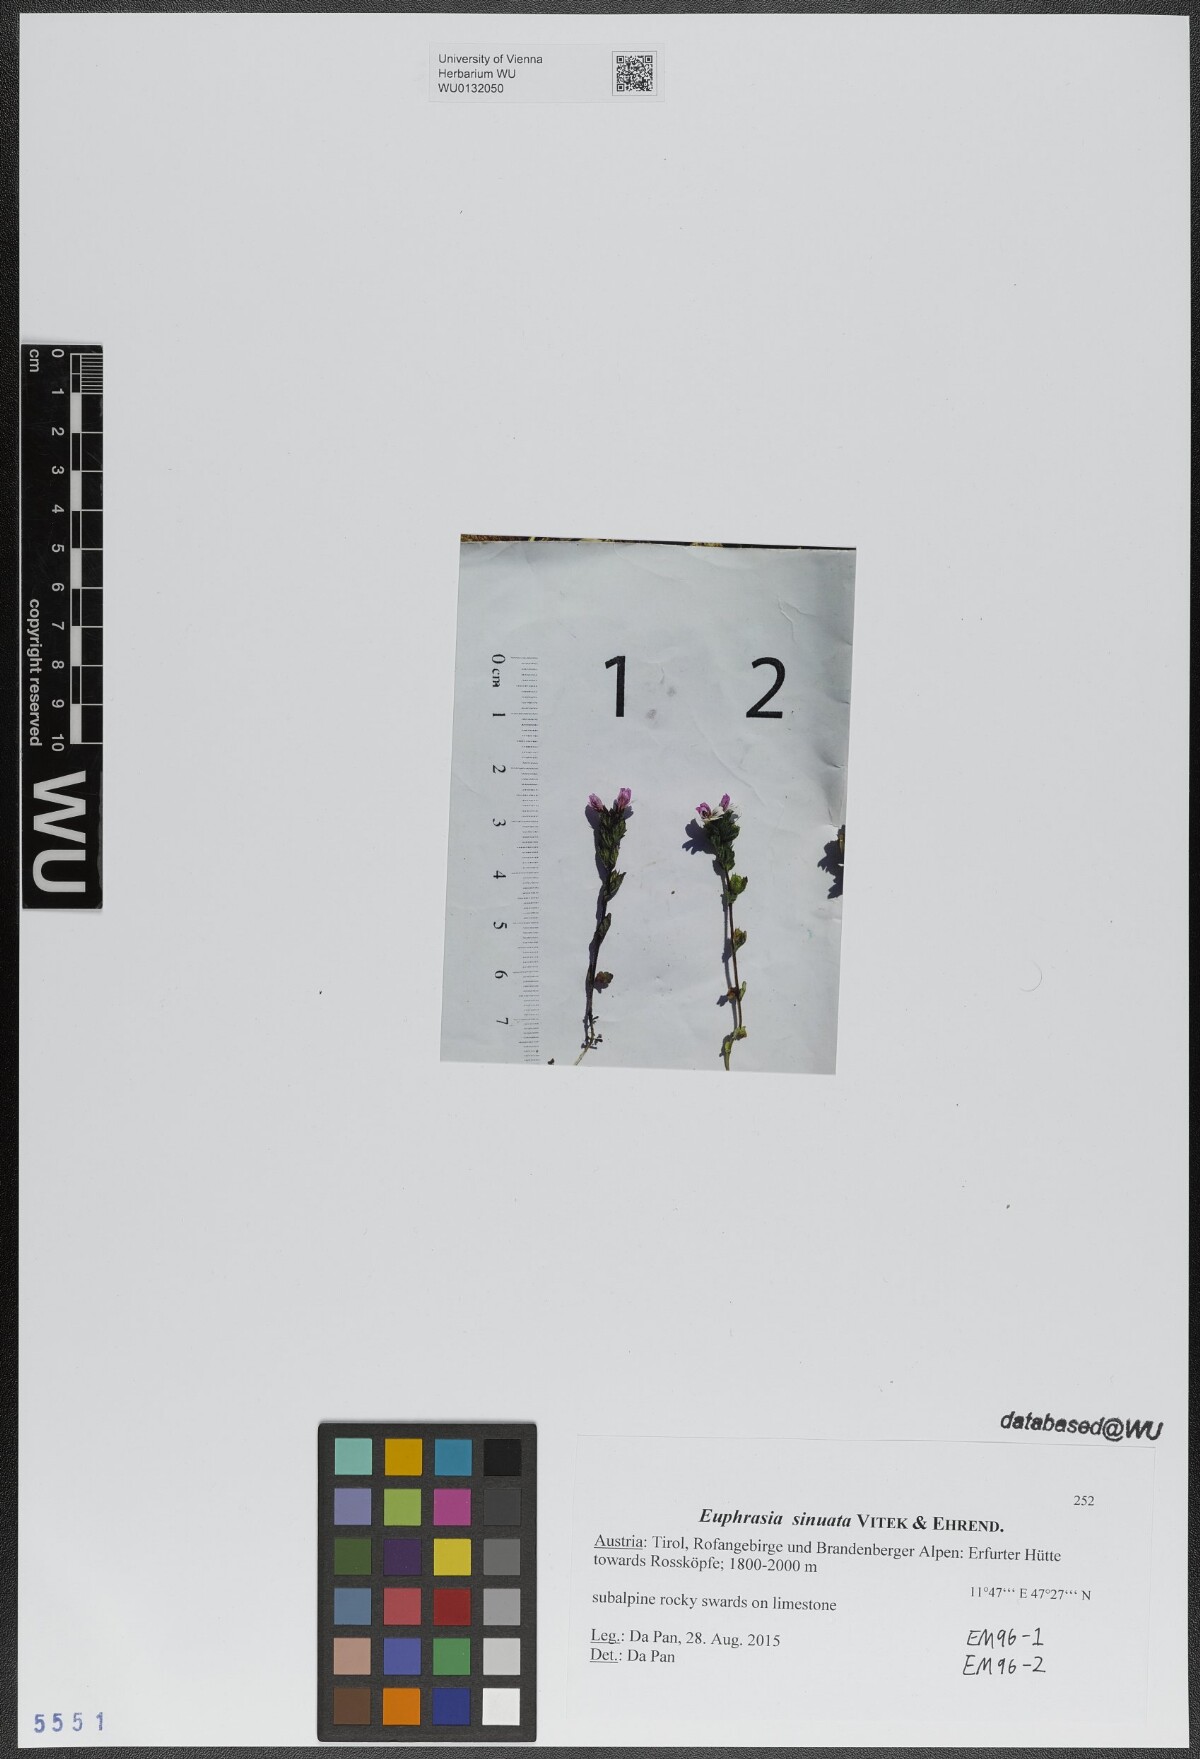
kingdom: Plantae
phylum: Tracheophyta
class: Magnoliopsida
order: Lamiales
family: Orobanchaceae
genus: Euphrasia
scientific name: Euphrasia sinuata
